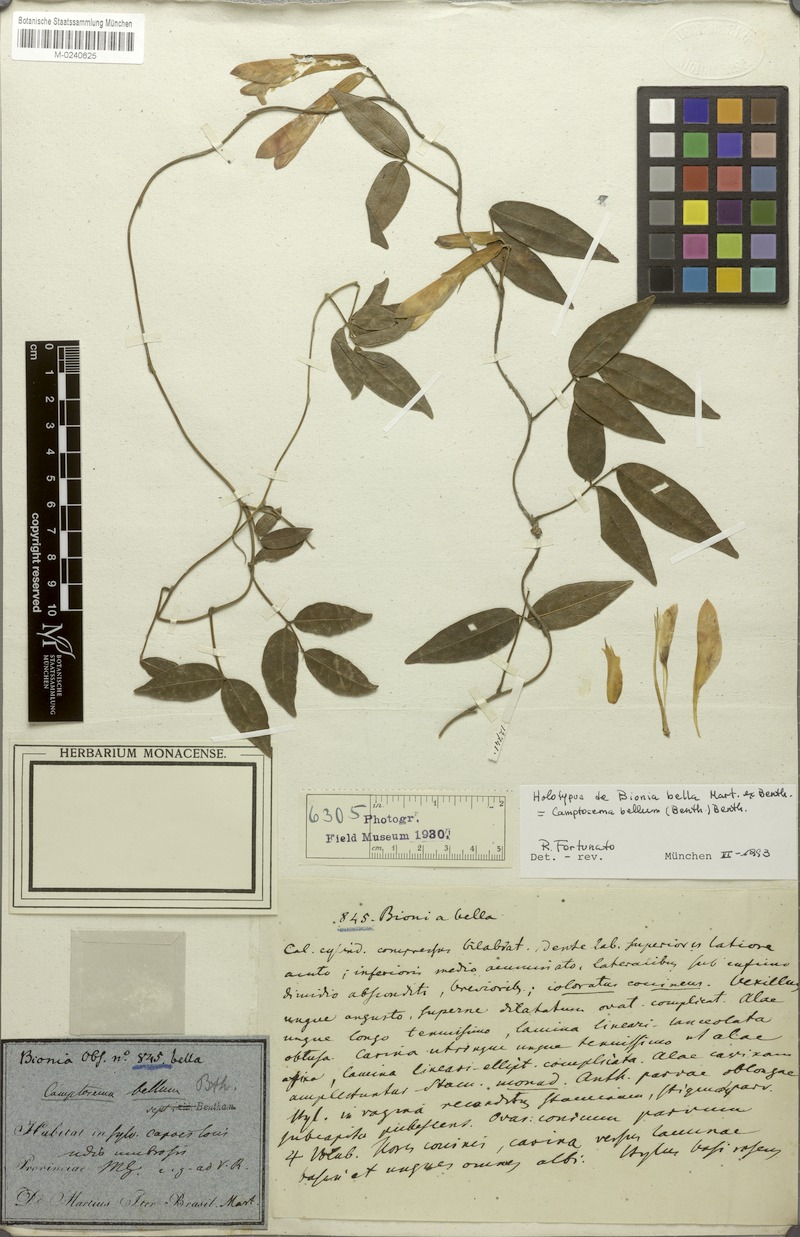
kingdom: Plantae
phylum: Tracheophyta
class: Magnoliopsida
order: Fabales
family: Fabaceae
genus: Mantiqueira
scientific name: Mantiqueira bella
